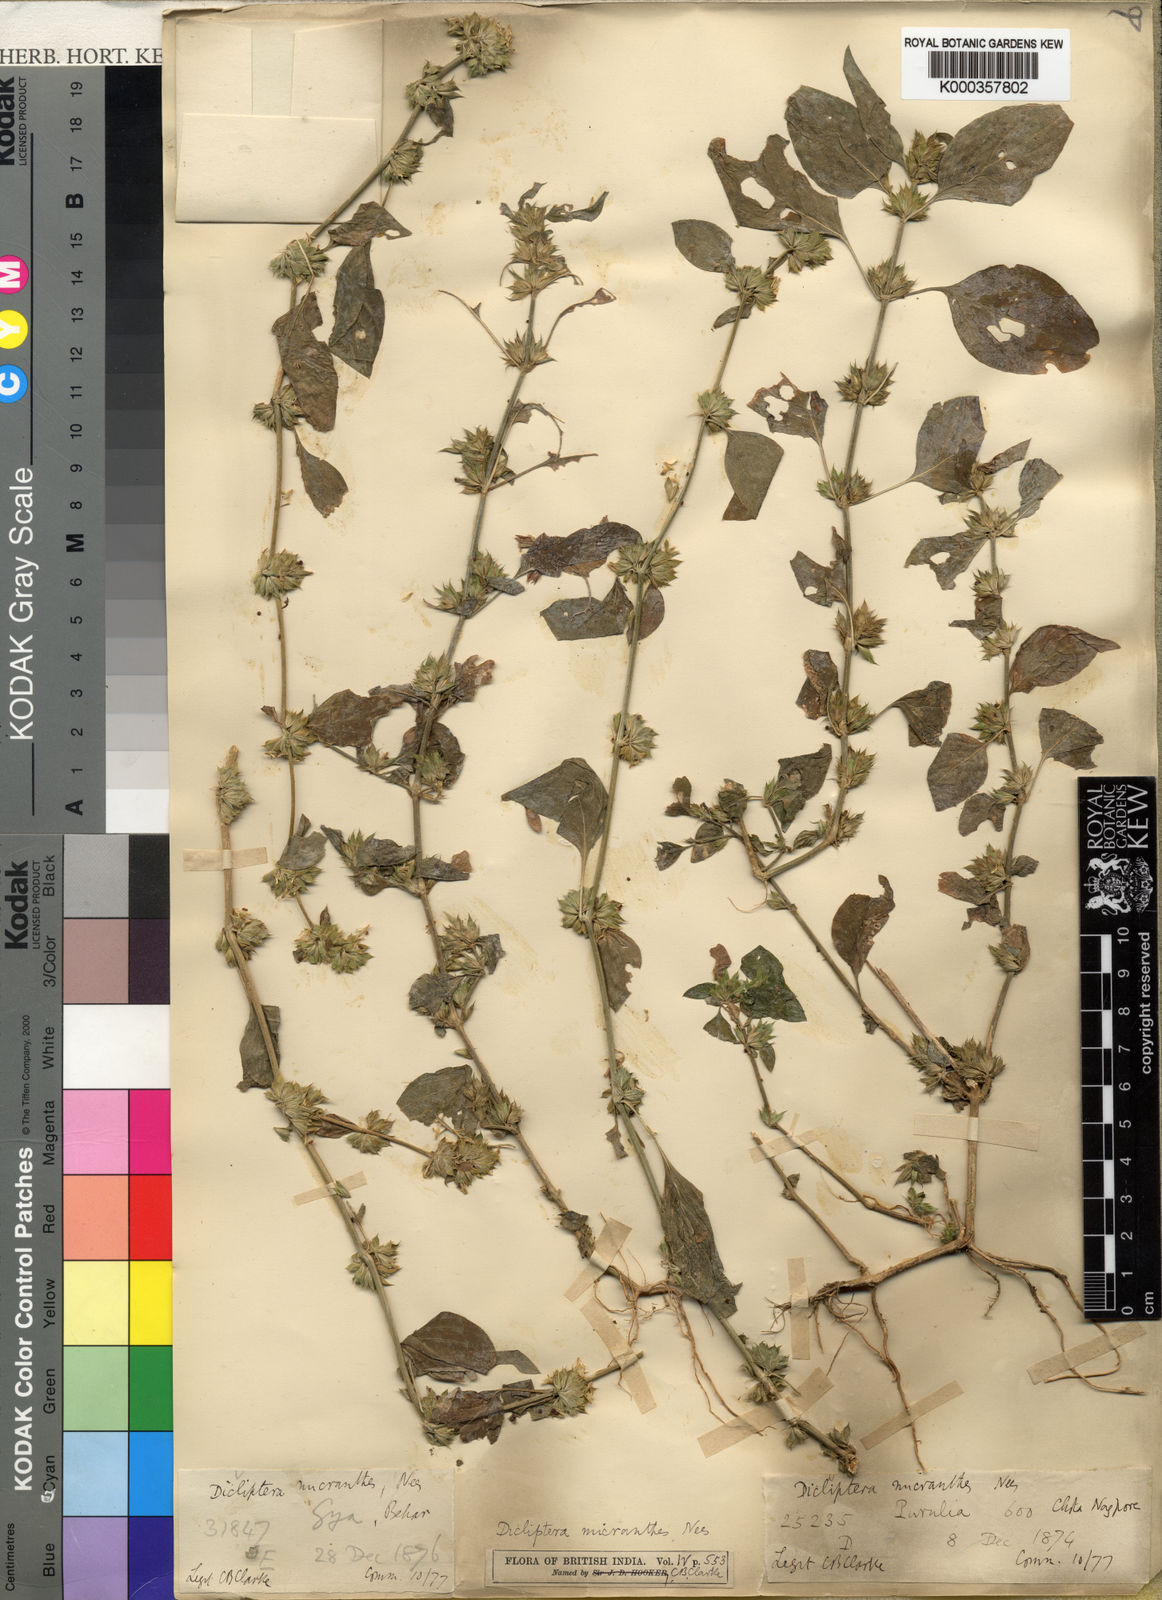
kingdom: Plantae
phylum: Tracheophyta
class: Magnoliopsida
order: Lamiales
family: Acanthaceae
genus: Dicliptera
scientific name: Dicliptera
